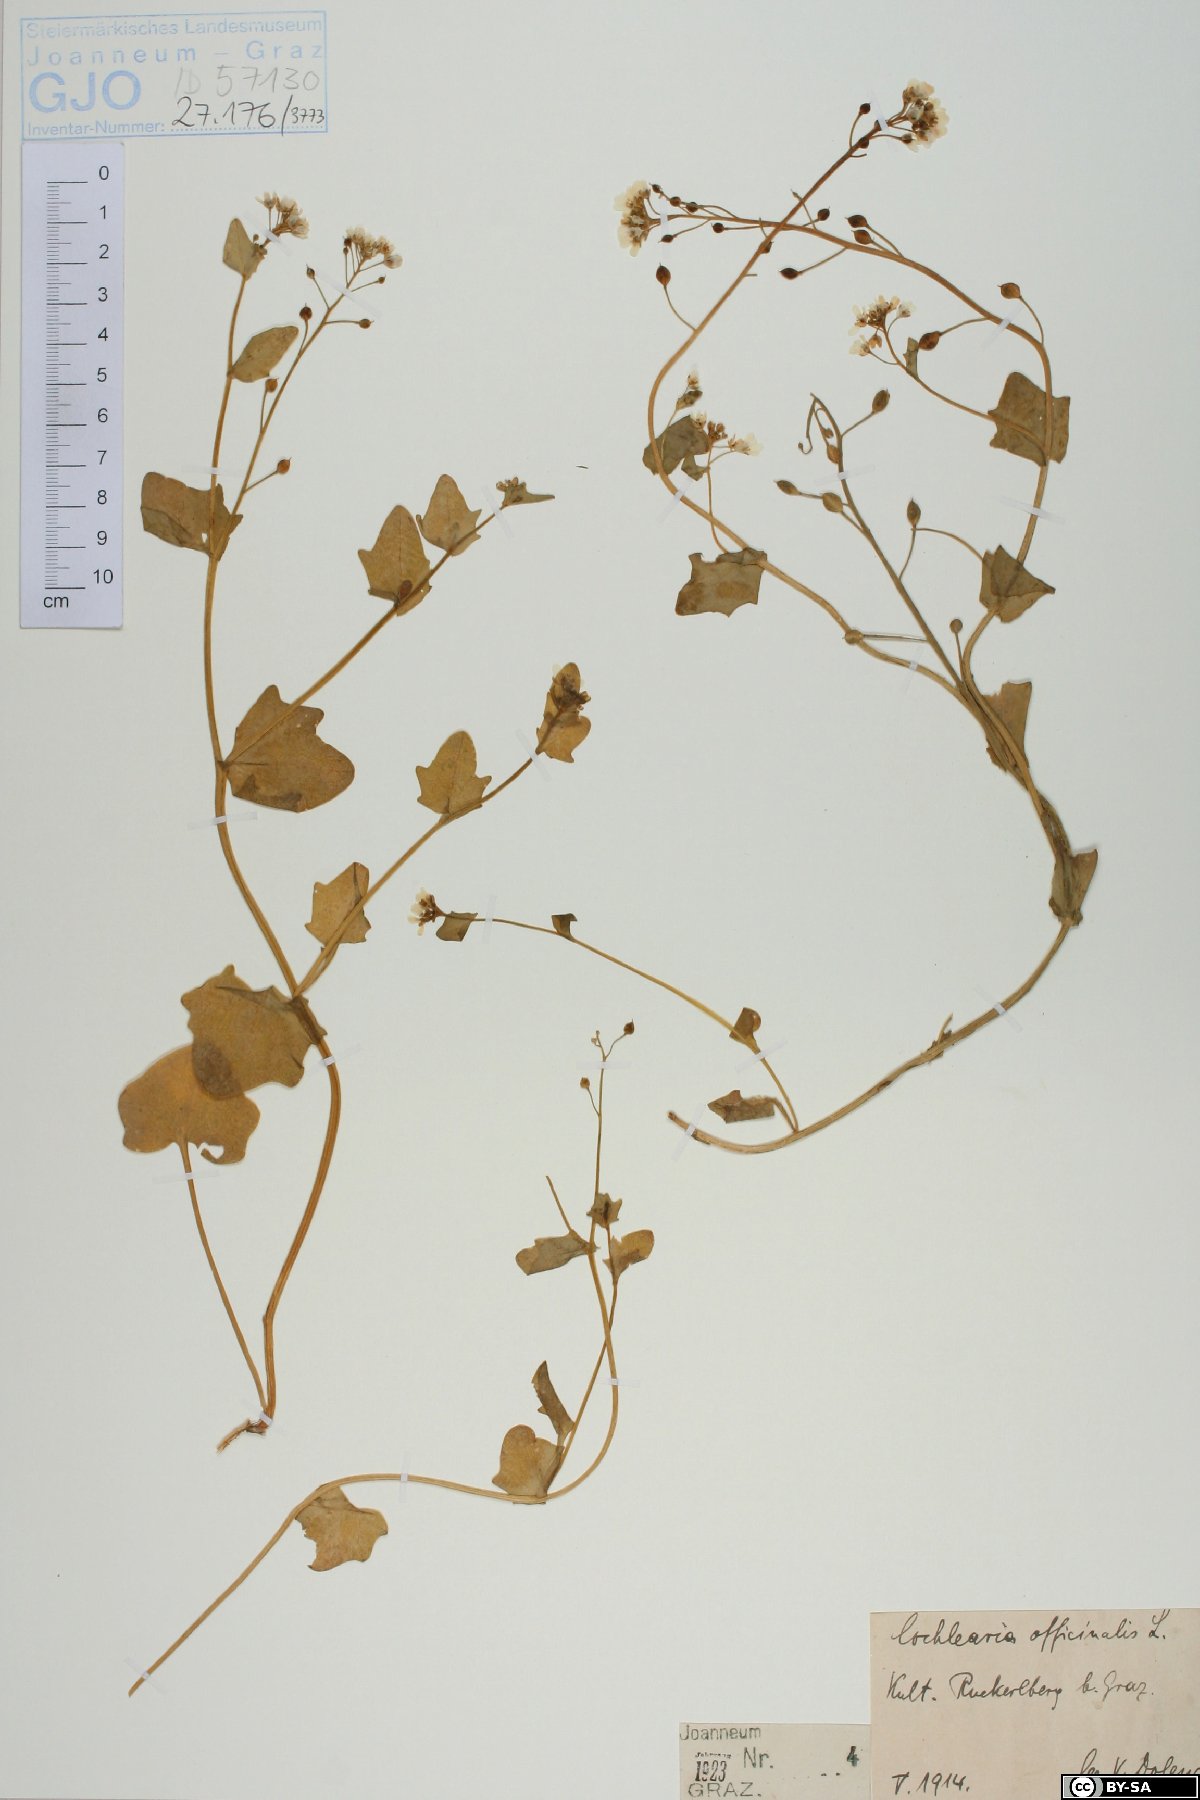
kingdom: Plantae
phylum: Tracheophyta
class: Magnoliopsida
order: Brassicales
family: Brassicaceae
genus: Cochlearia
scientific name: Cochlearia officinalis
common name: Scurvy-grass
